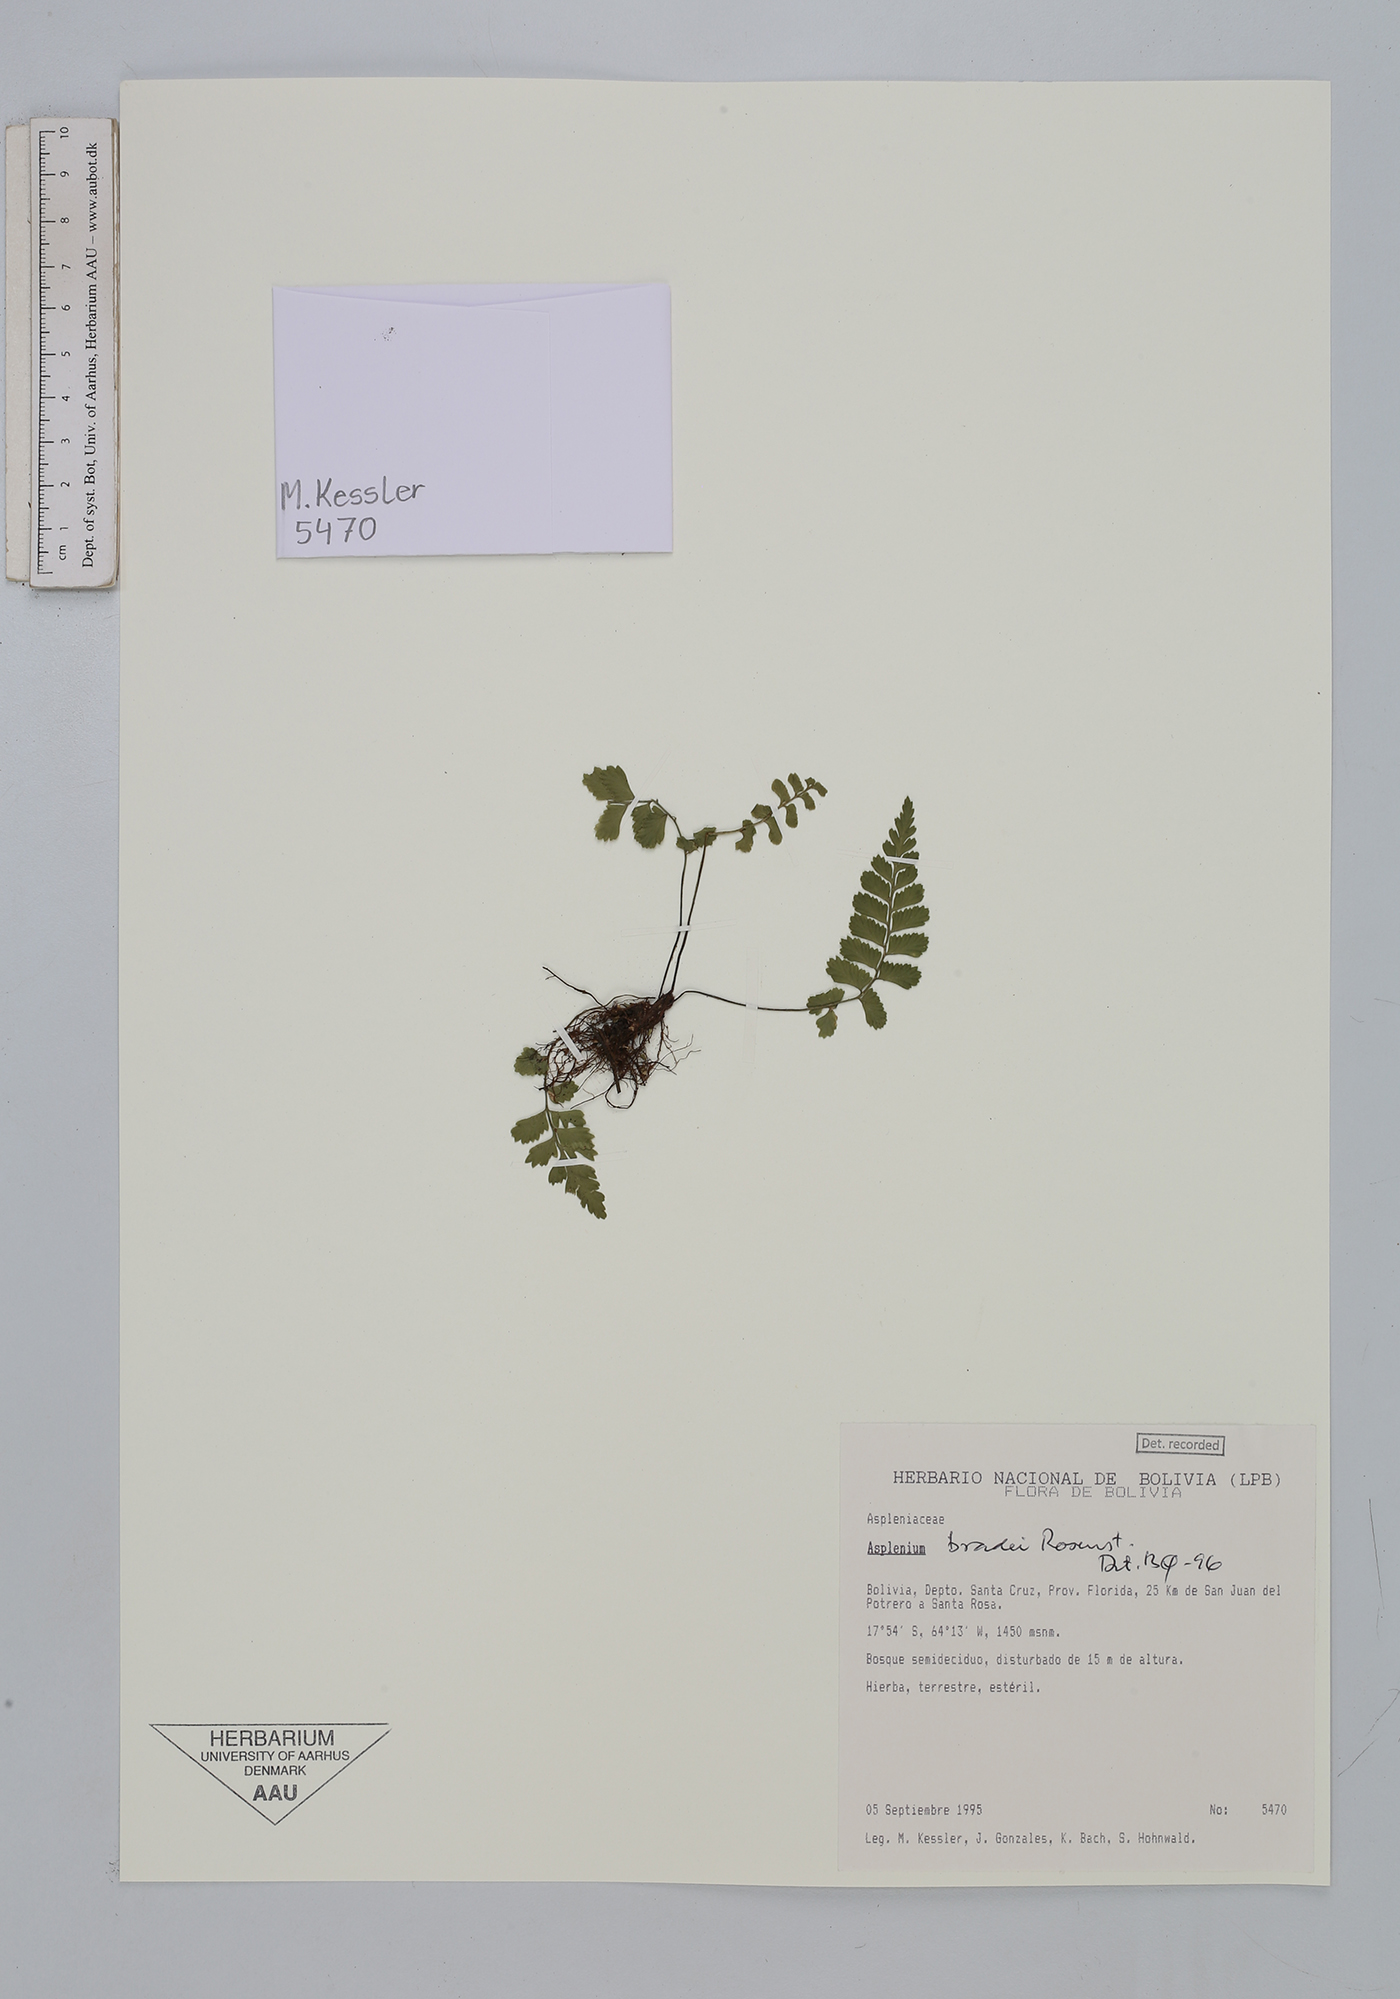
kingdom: Plantae
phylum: Tracheophyta
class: Polypodiopsida
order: Polypodiales
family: Aspleniaceae
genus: Asplenium
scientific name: Asplenium bradei
